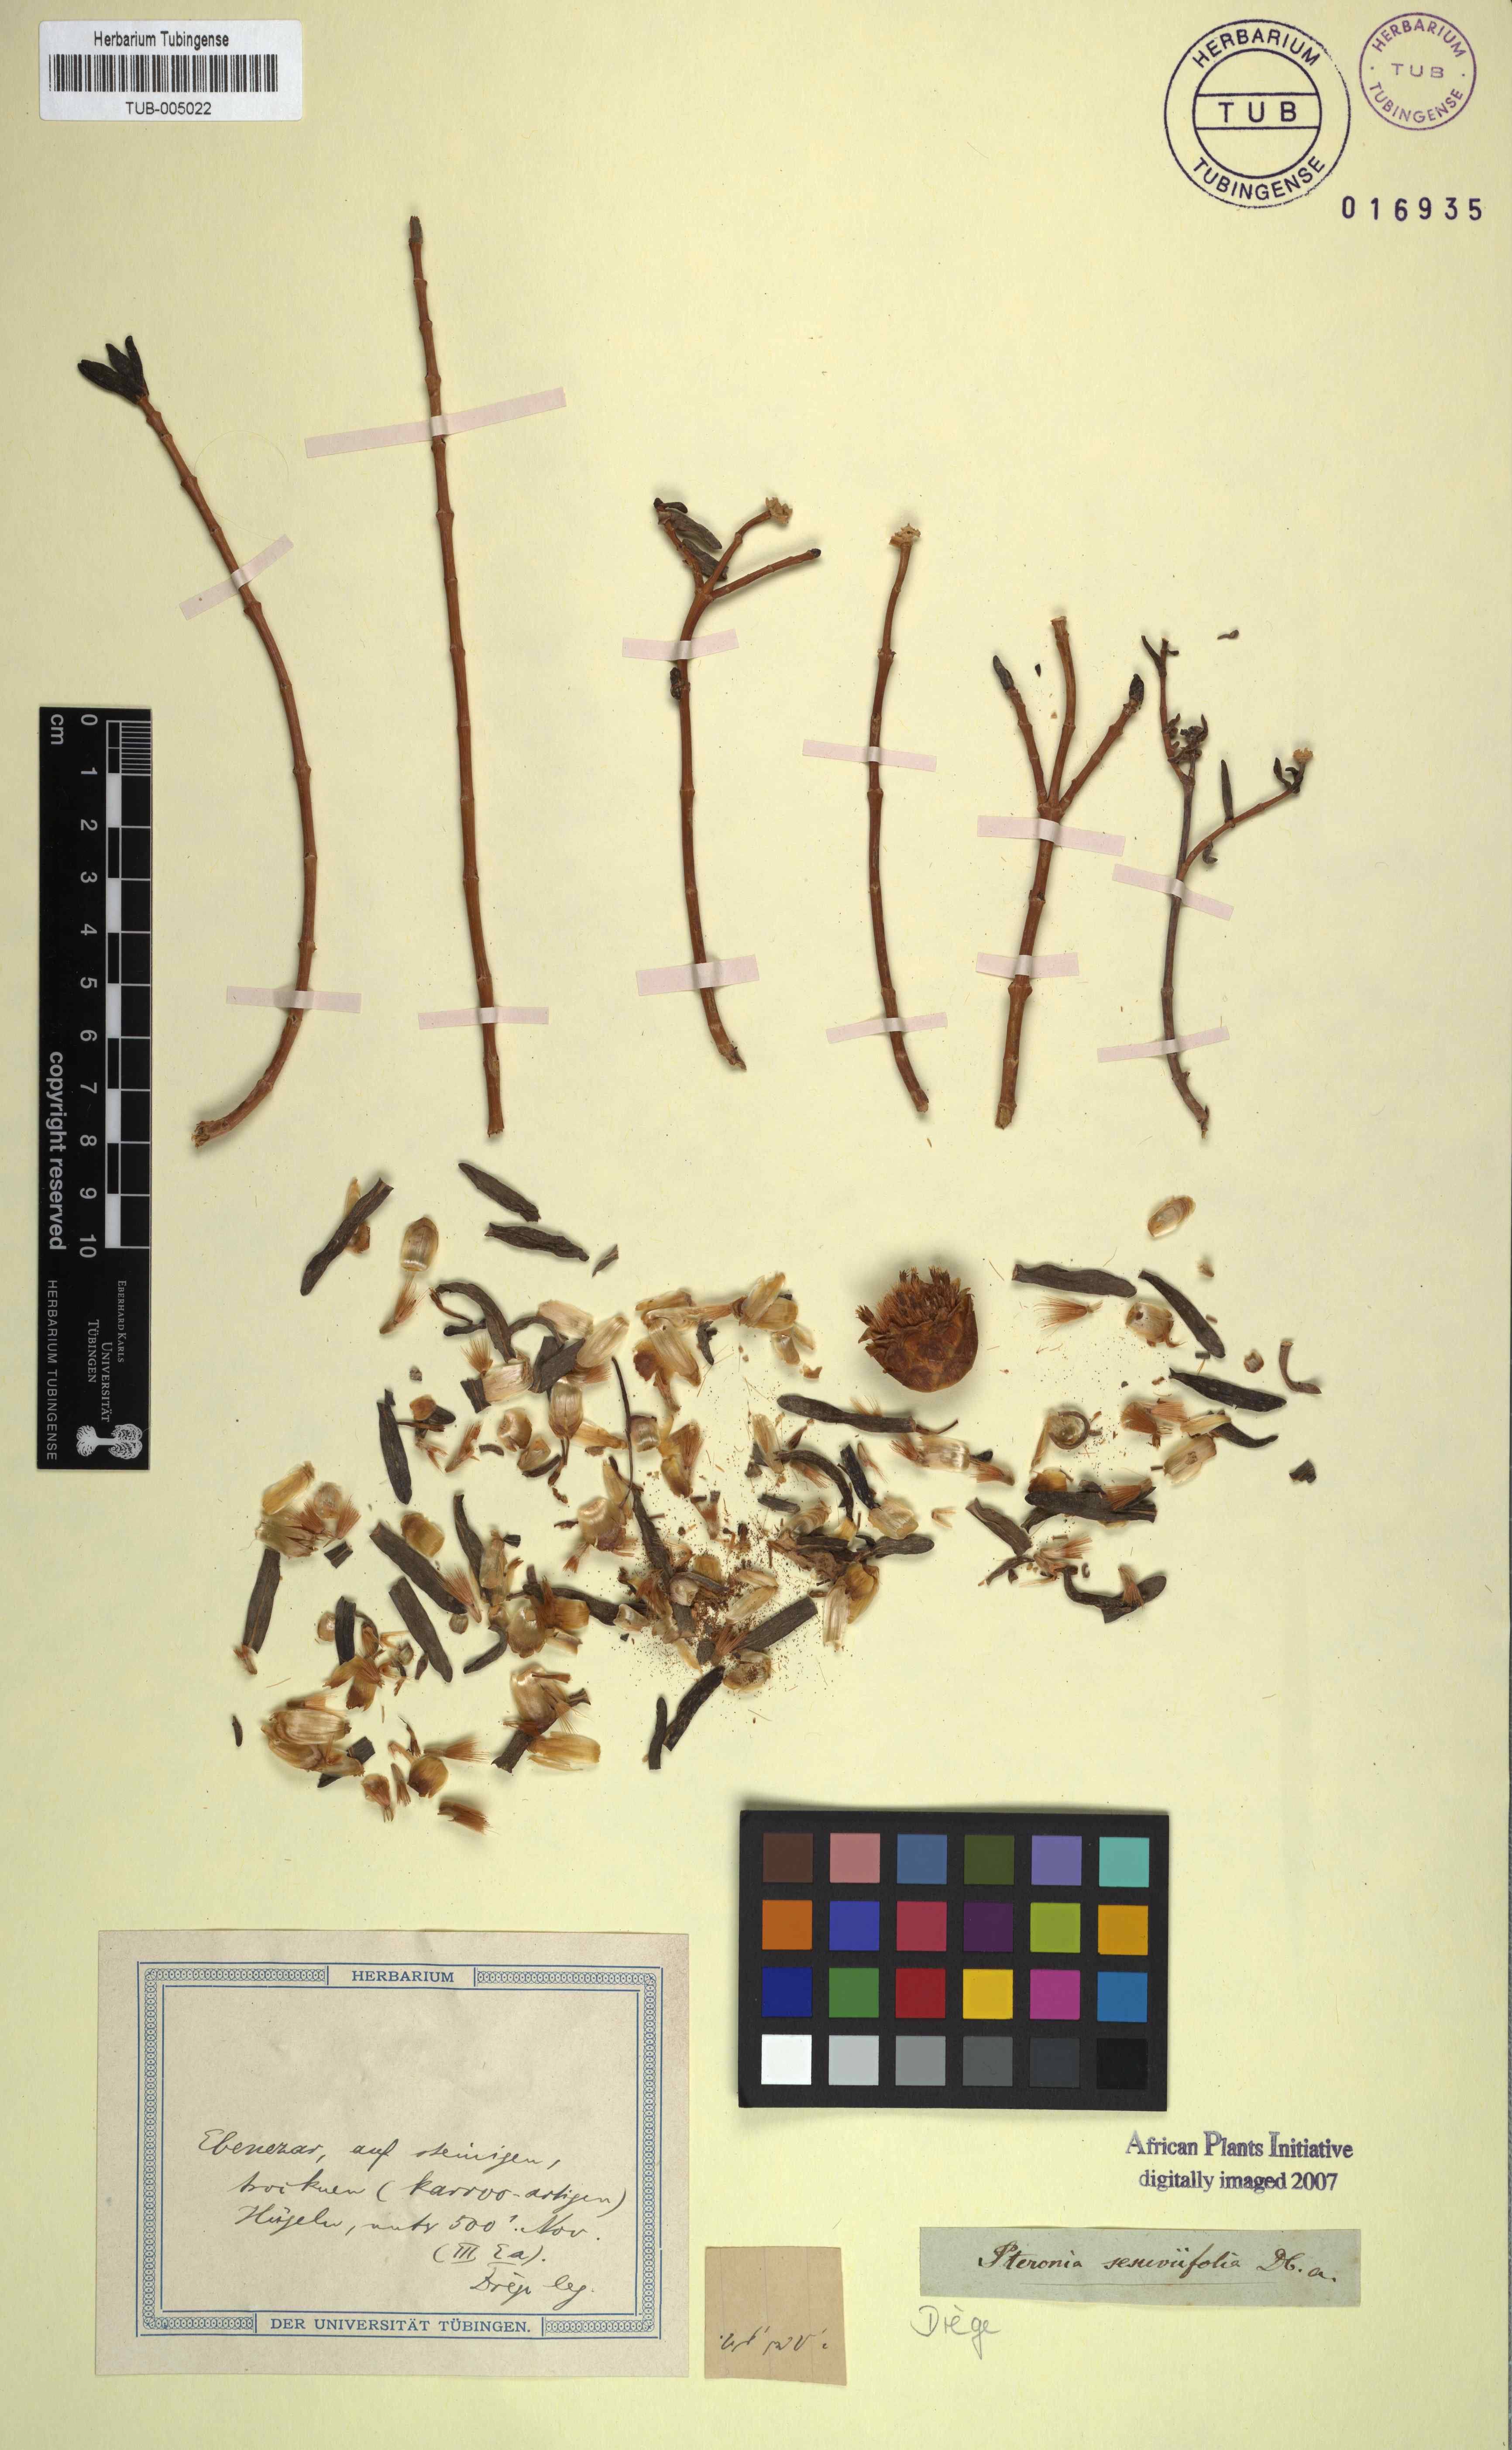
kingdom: Plantae
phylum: Tracheophyta
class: Magnoliopsida
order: Asterales
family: Asteraceae
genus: Pteronia
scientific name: Pteronia glabrata
